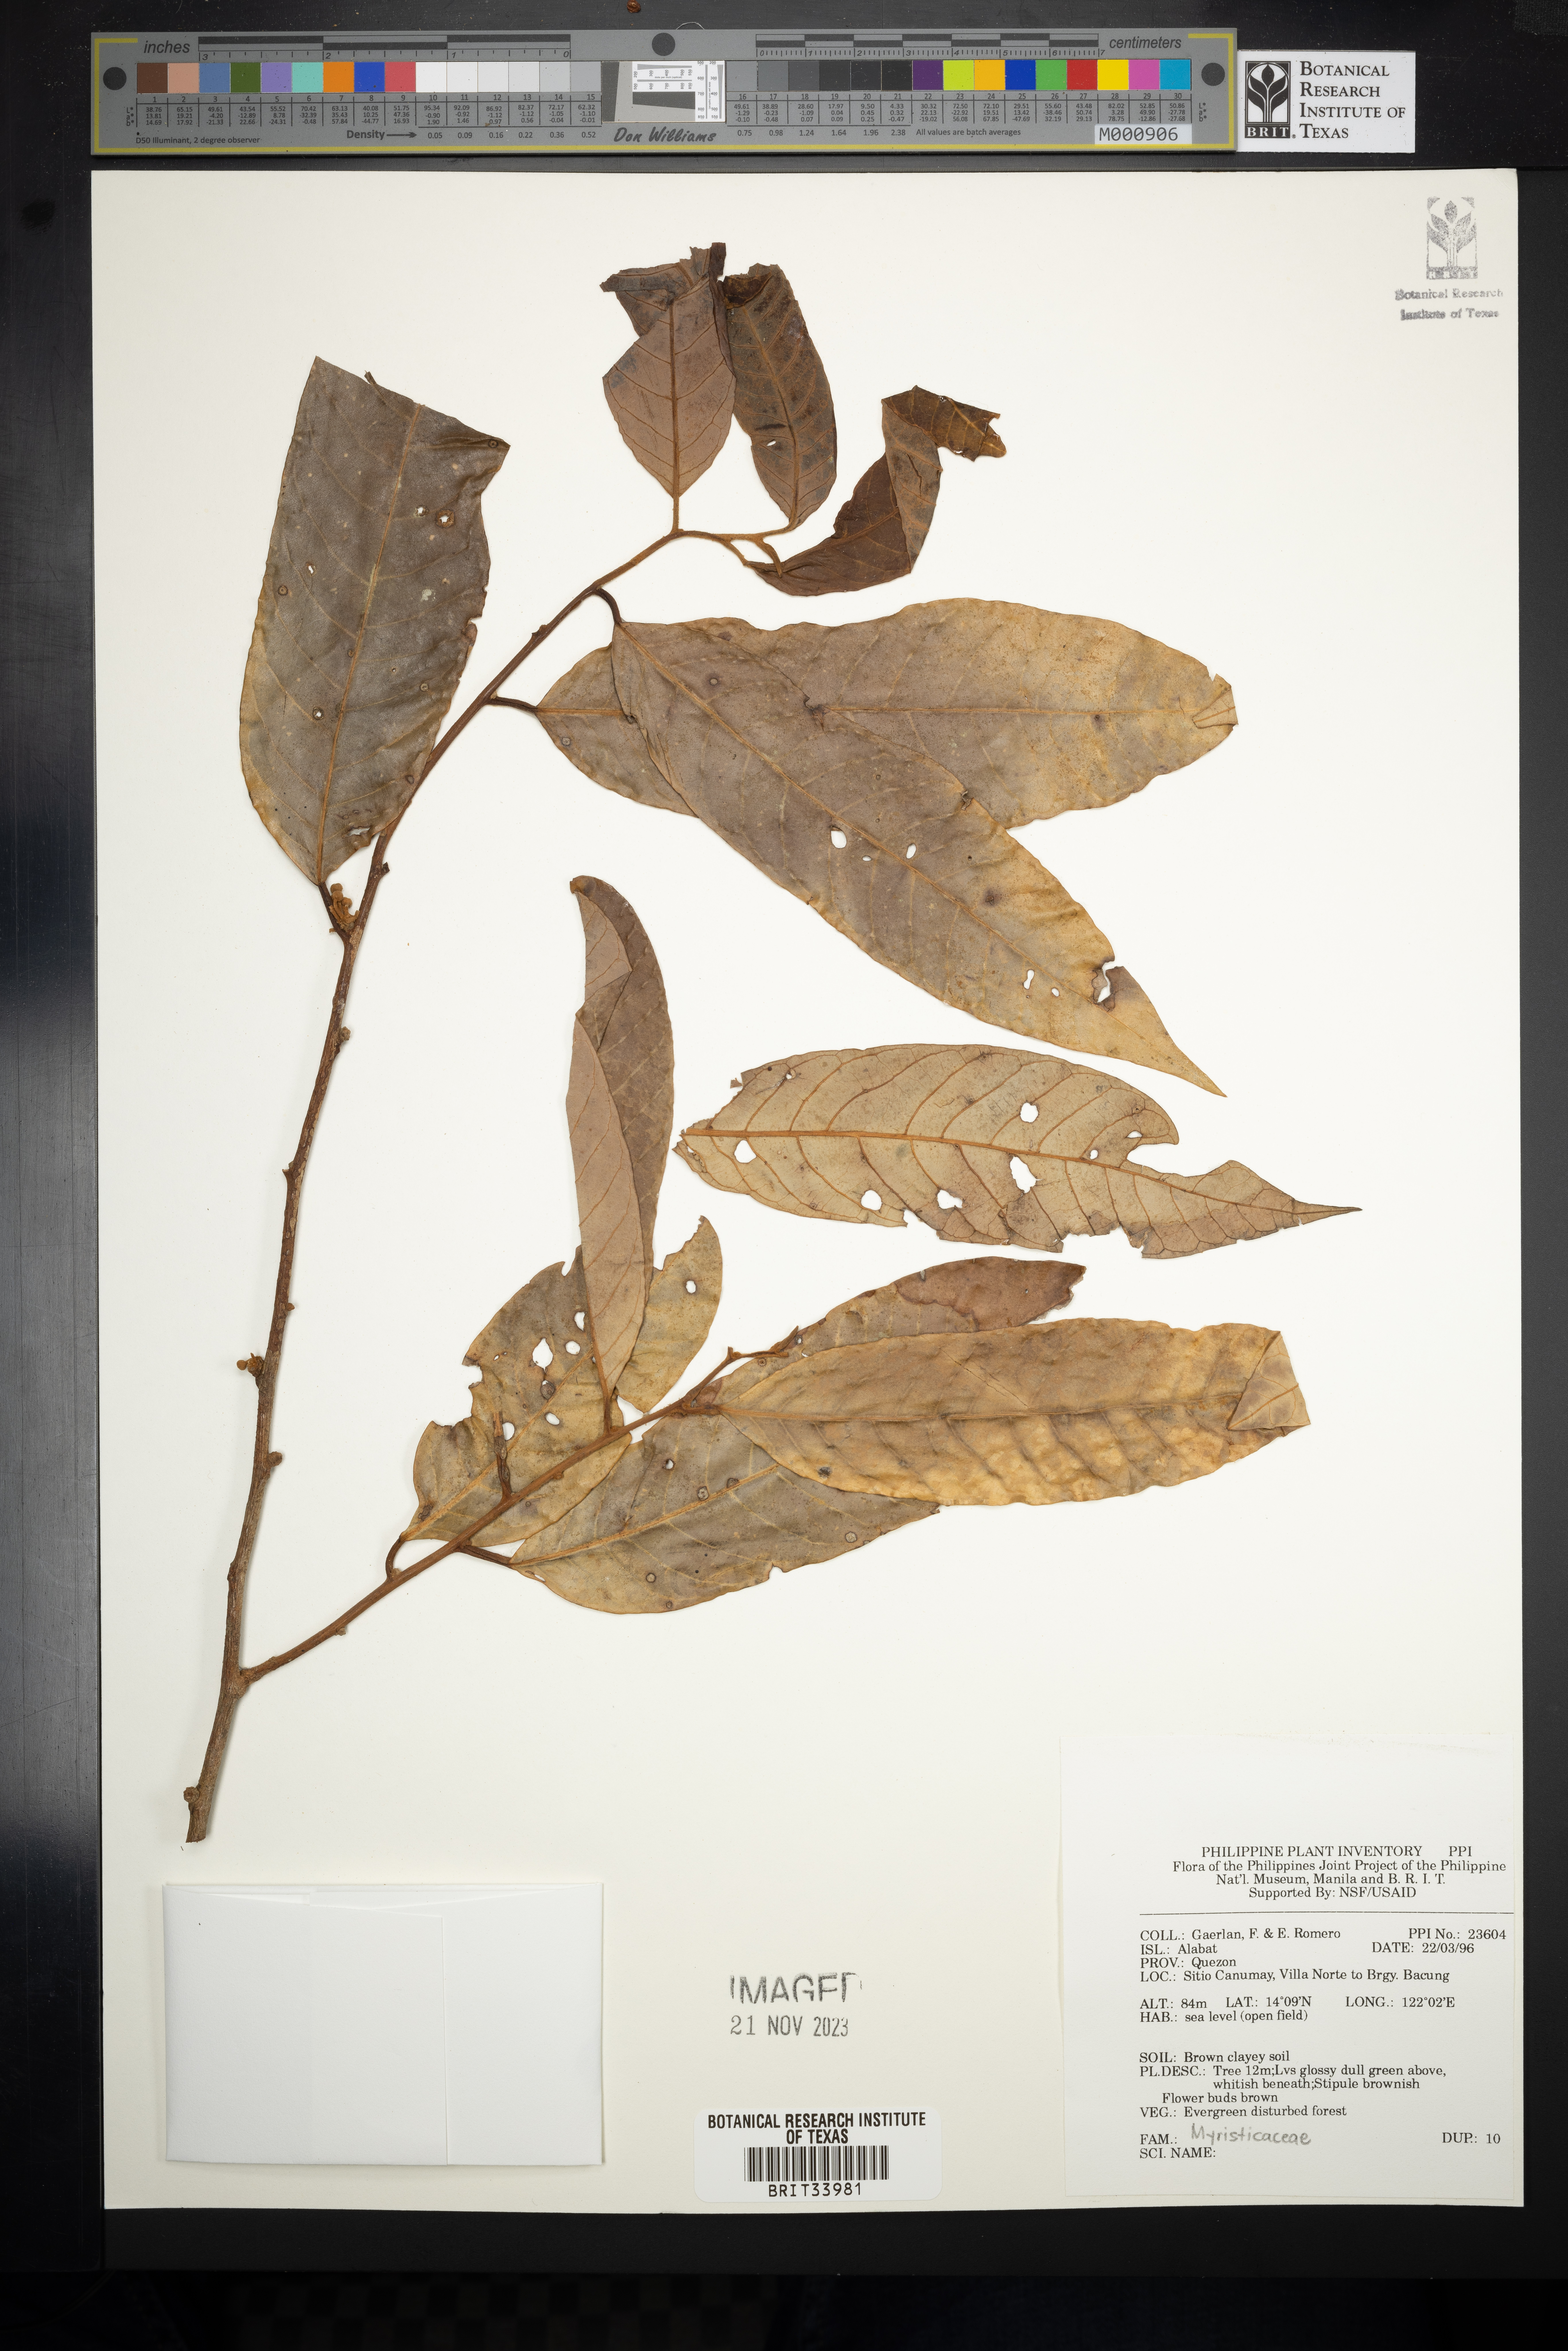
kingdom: Plantae
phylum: Tracheophyta
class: Magnoliopsida
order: Magnoliales
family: Myristicaceae
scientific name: Myristicaceae
